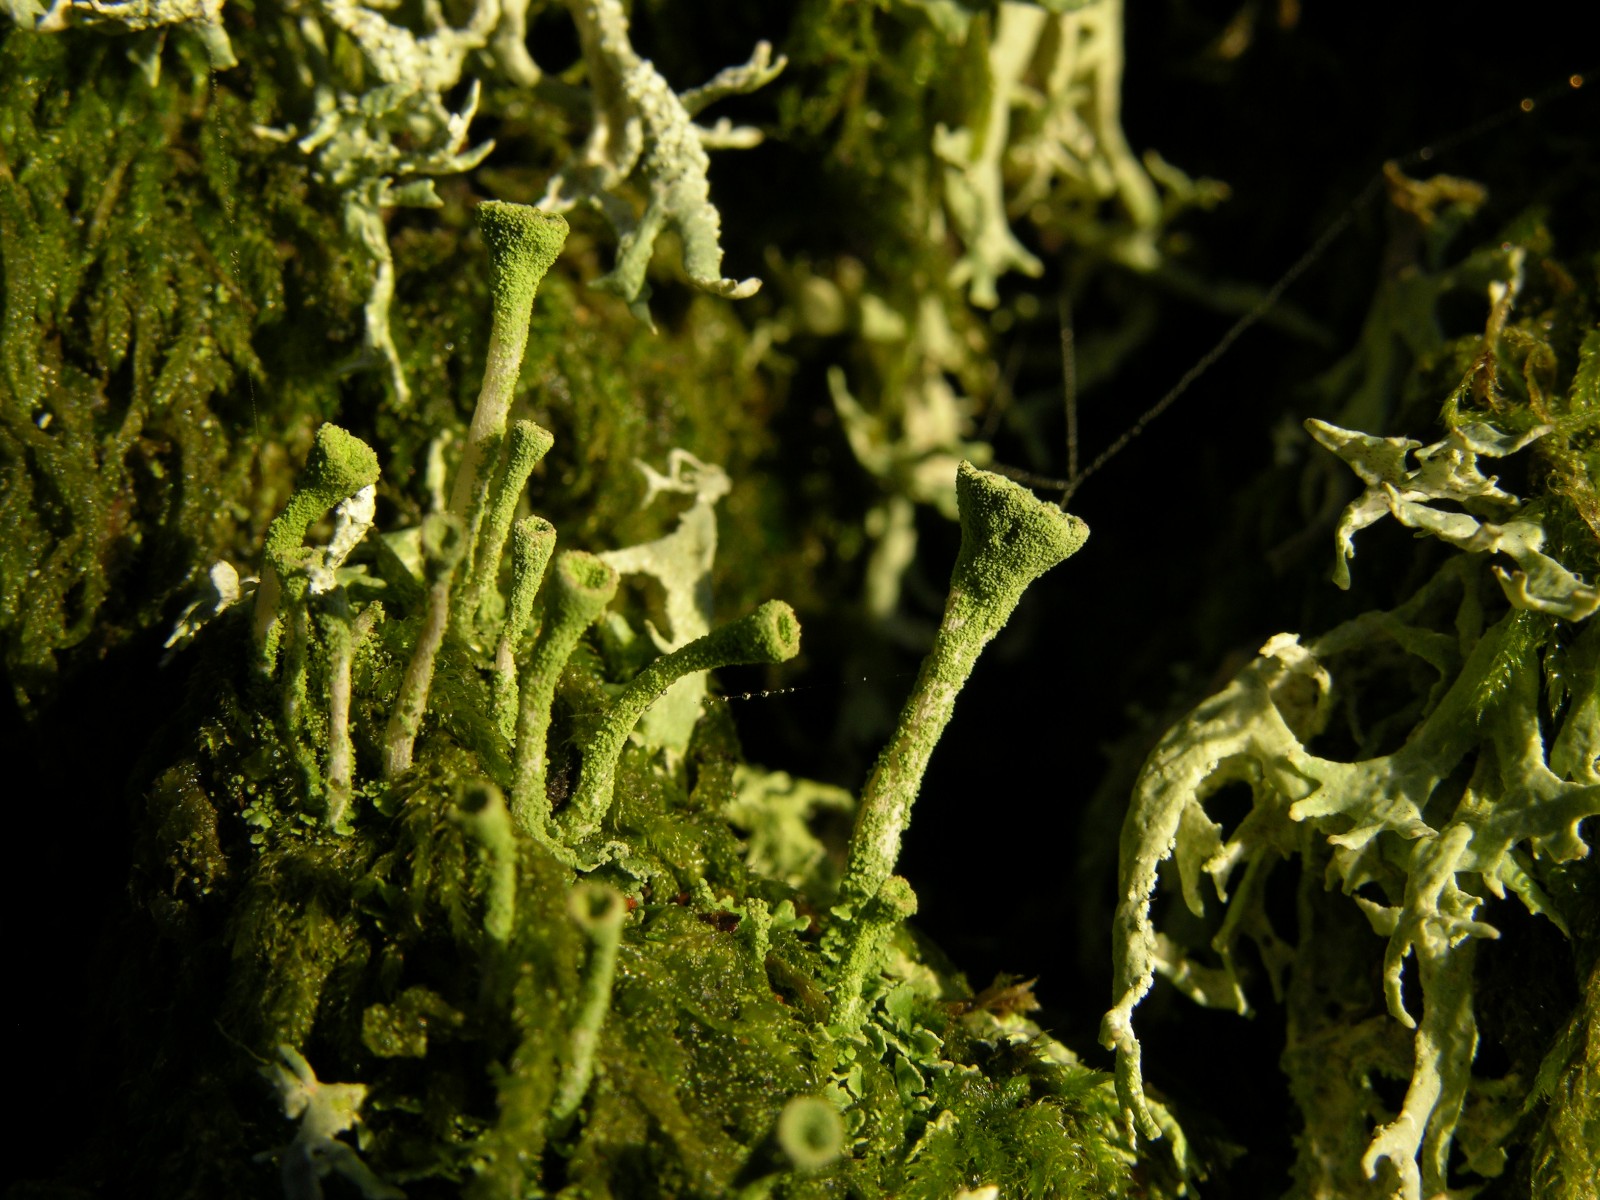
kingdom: Fungi
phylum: Ascomycota
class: Lecanoromycetes
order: Lecanorales
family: Cladoniaceae
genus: Cladonia
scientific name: Cladonia fimbriata
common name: bleggrøn bægerlav
